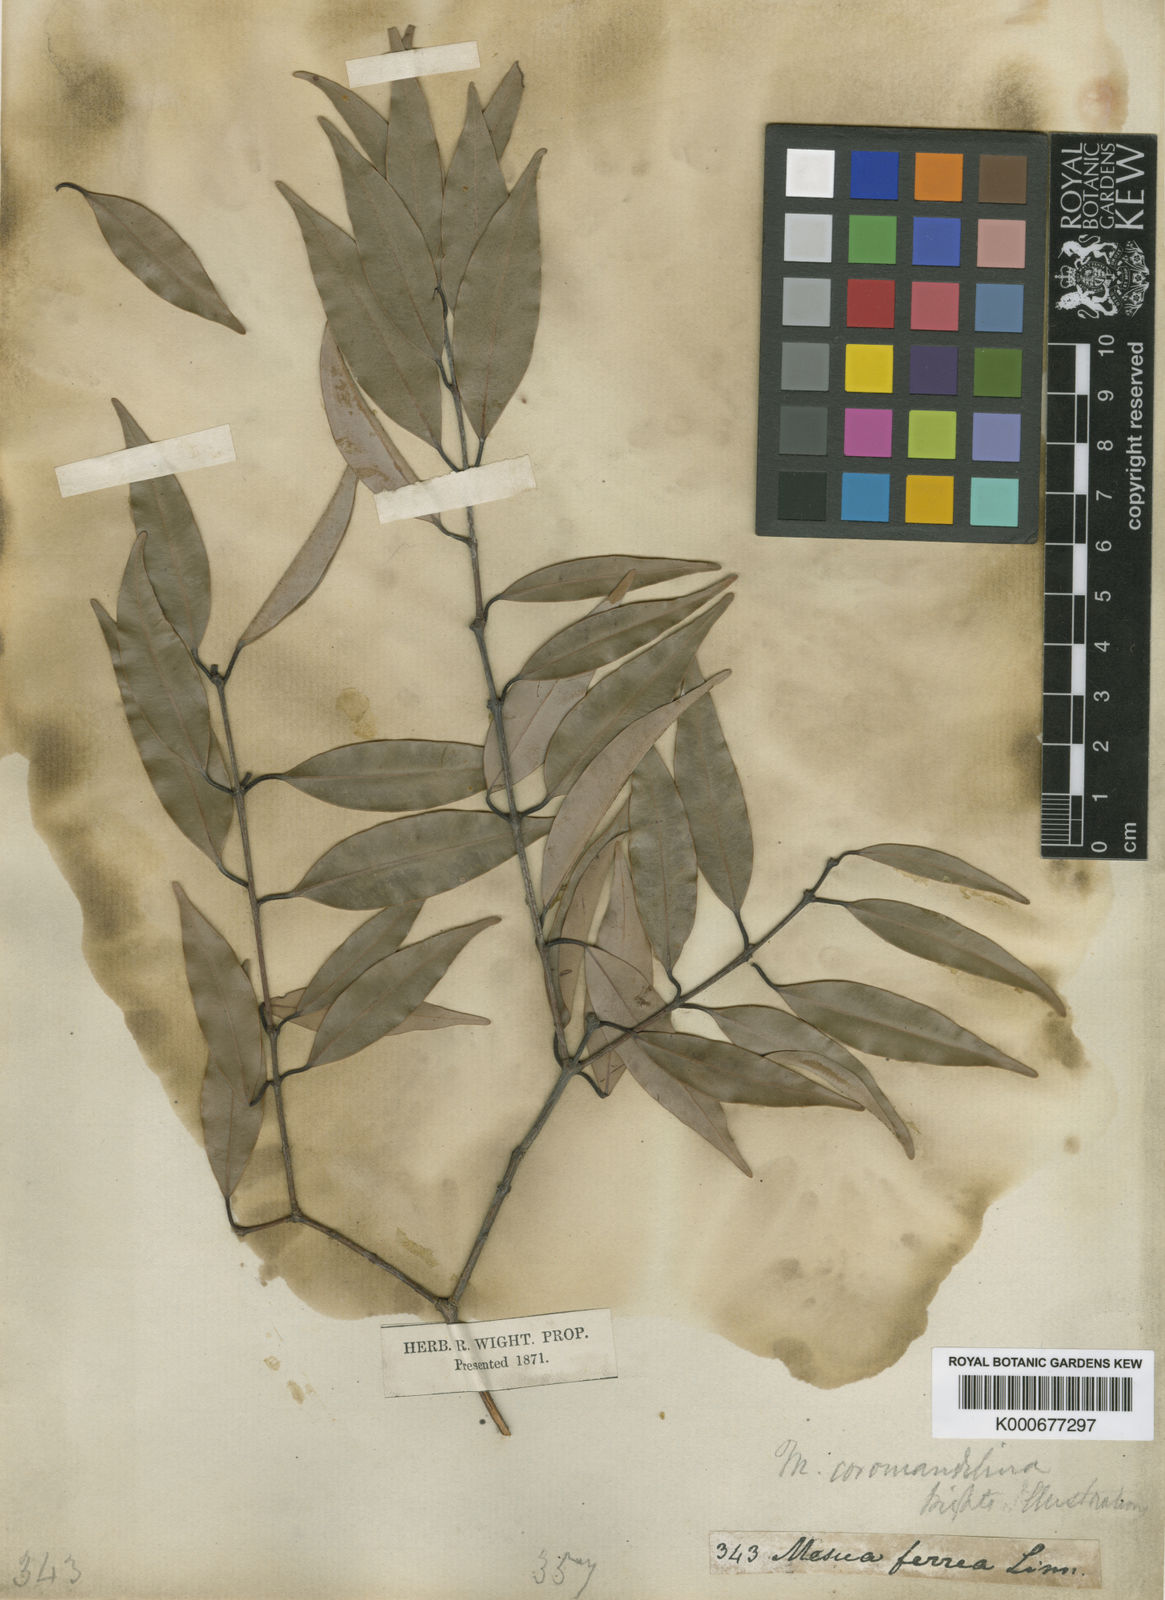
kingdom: Plantae
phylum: Tracheophyta
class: Magnoliopsida
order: Malpighiales
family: Calophyllaceae
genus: Mesua
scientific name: Mesua
